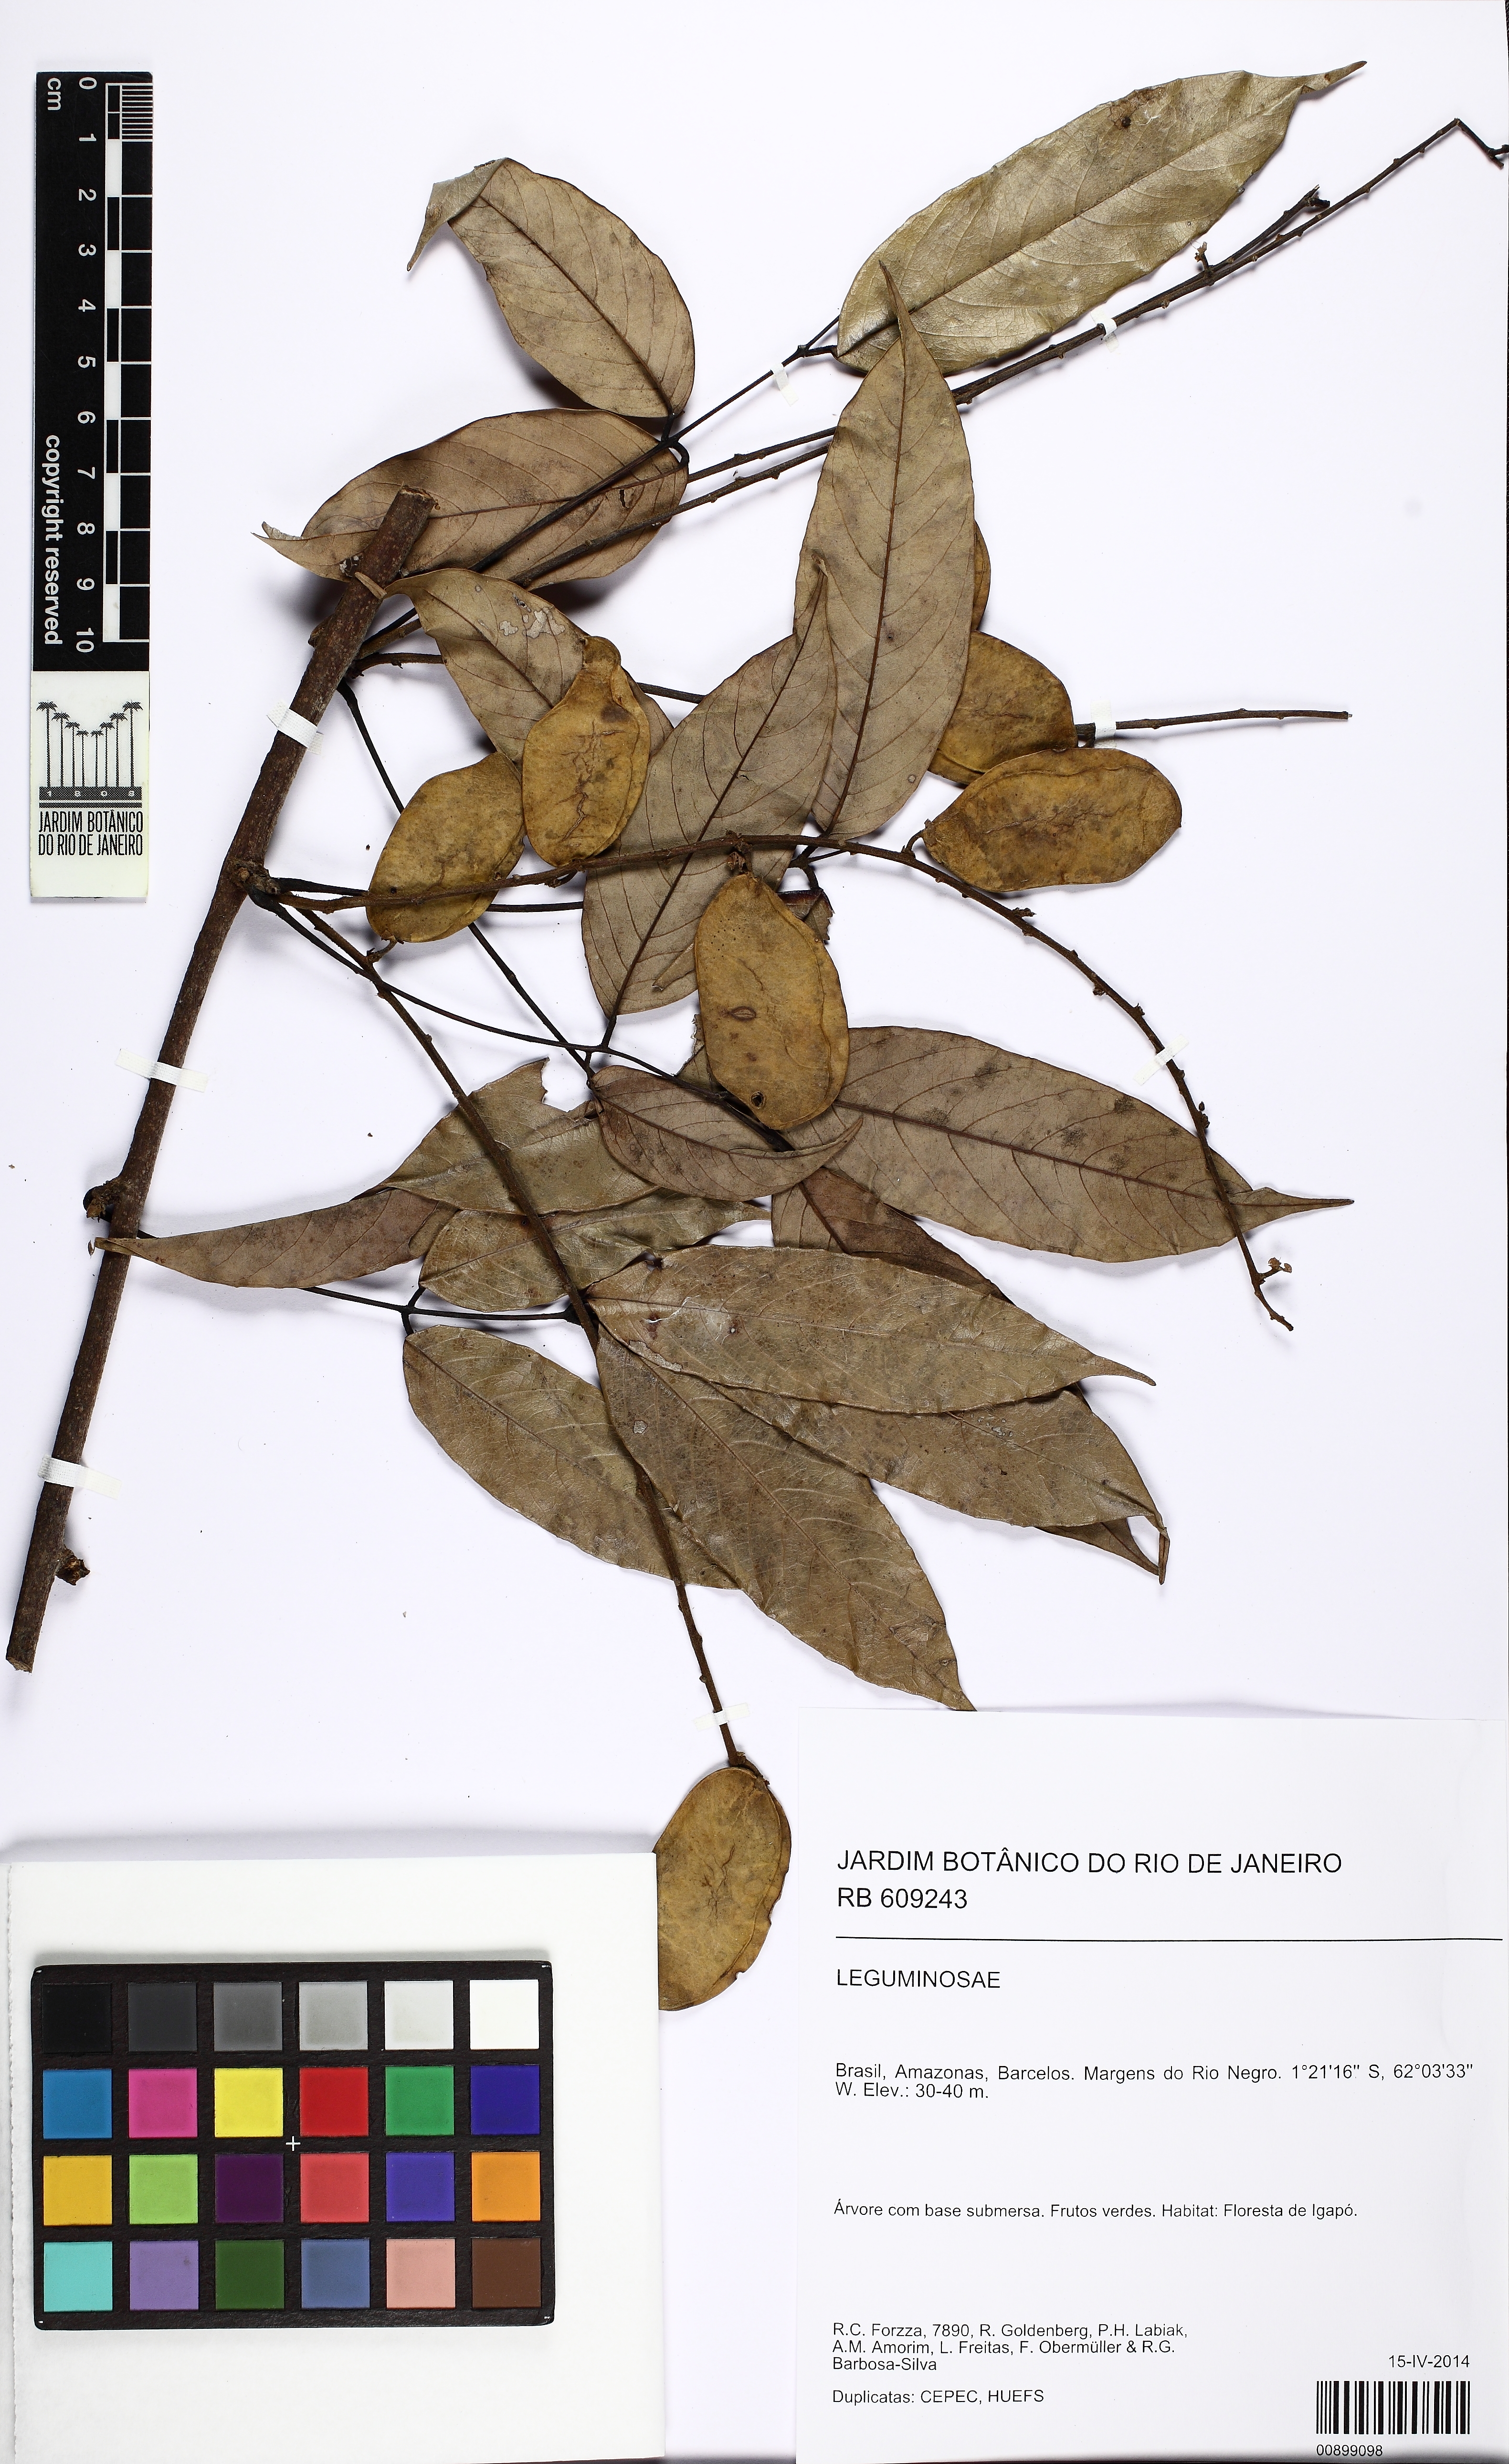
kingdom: Plantae
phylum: Tracheophyta
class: Magnoliopsida
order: Fabales
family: Fabaceae
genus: Deguelia
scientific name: Deguelia
